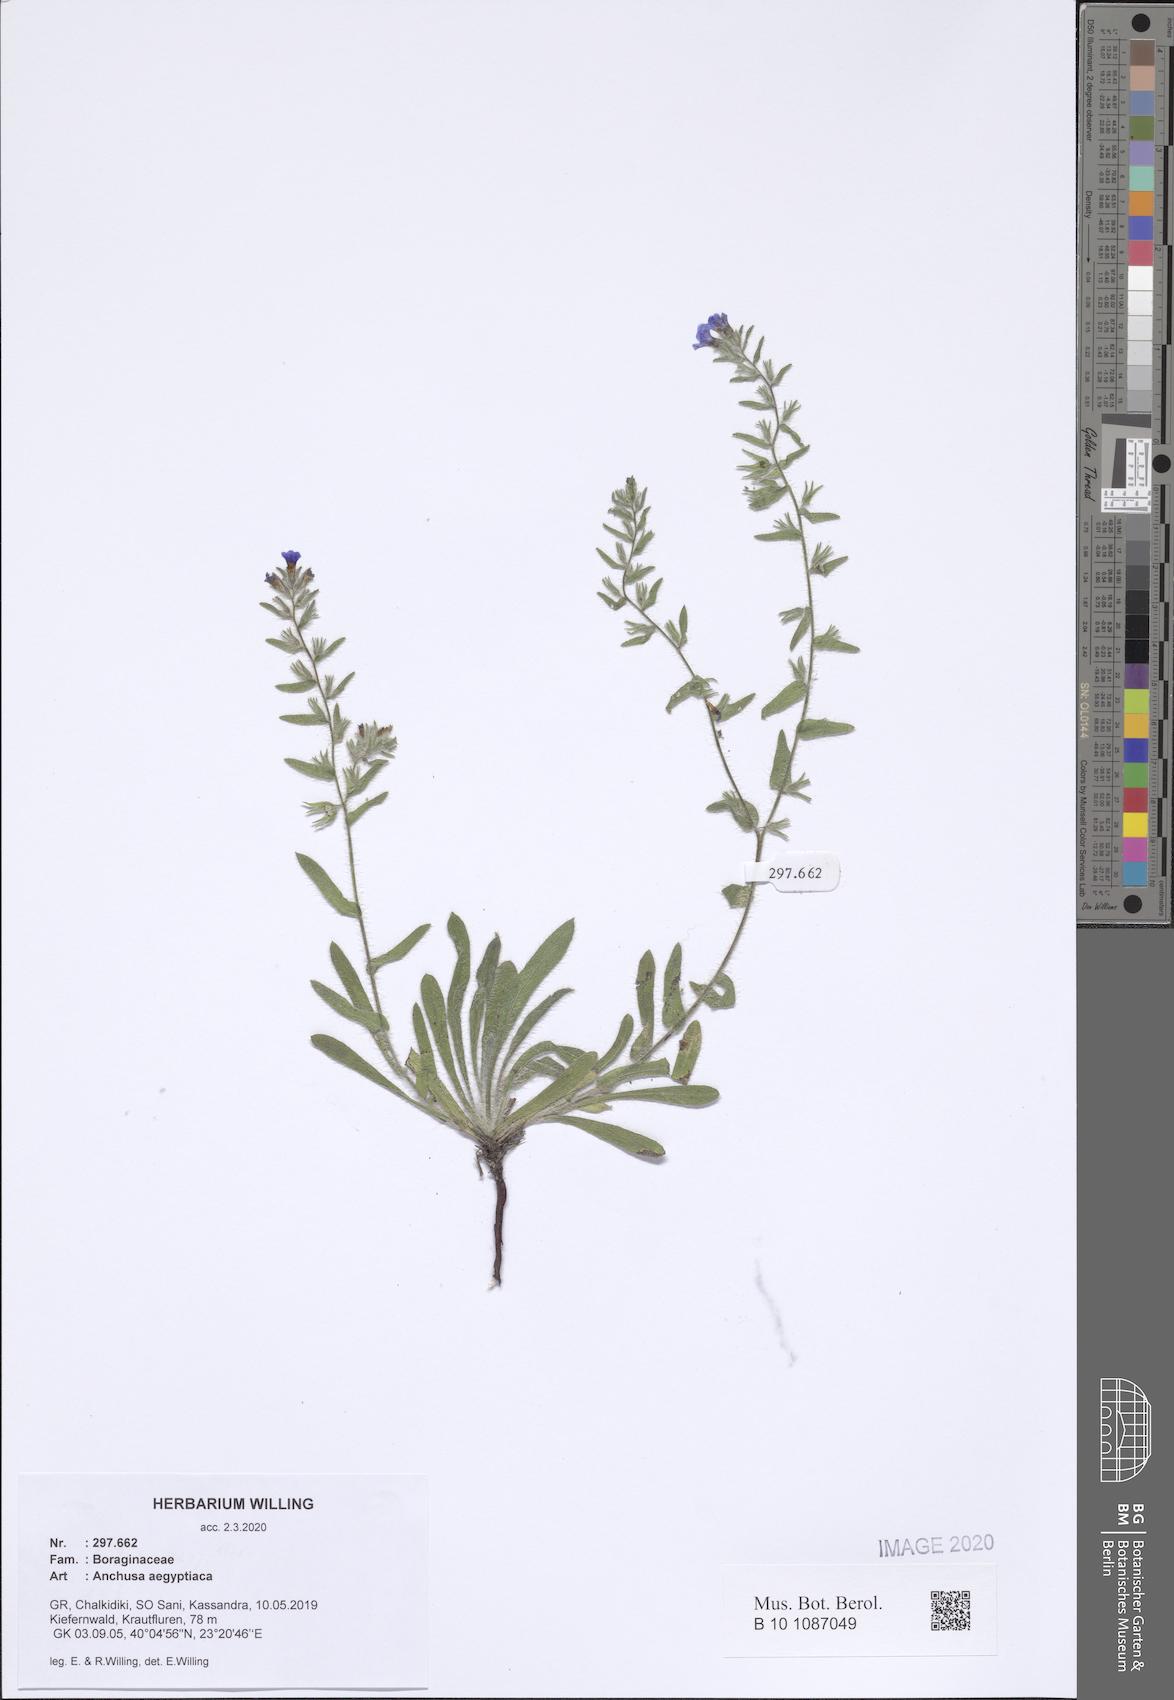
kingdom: Plantae
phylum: Tracheophyta
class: Magnoliopsida
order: Boraginales
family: Boraginaceae
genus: Lycopsis
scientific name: Lycopsis aegyptiaca
